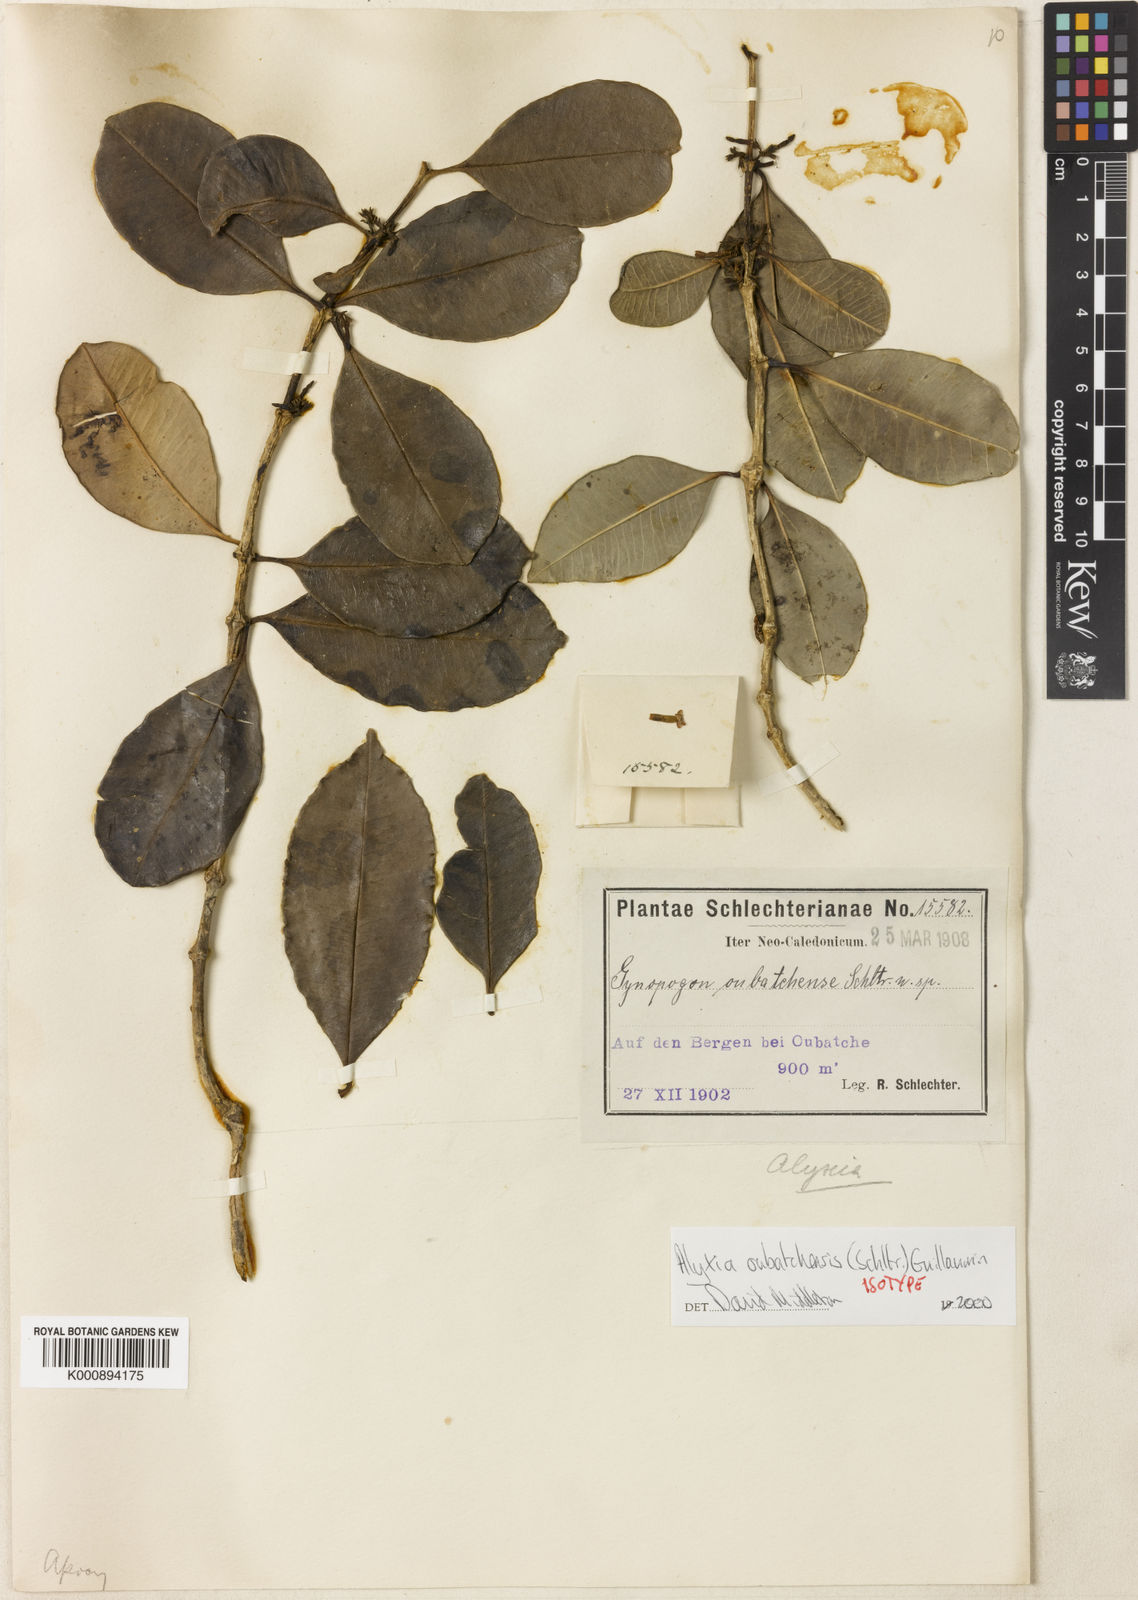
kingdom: Plantae
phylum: Tracheophyta
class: Magnoliopsida
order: Gentianales
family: Apocynaceae
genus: Alyxia
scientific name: Alyxia oubatchensis
